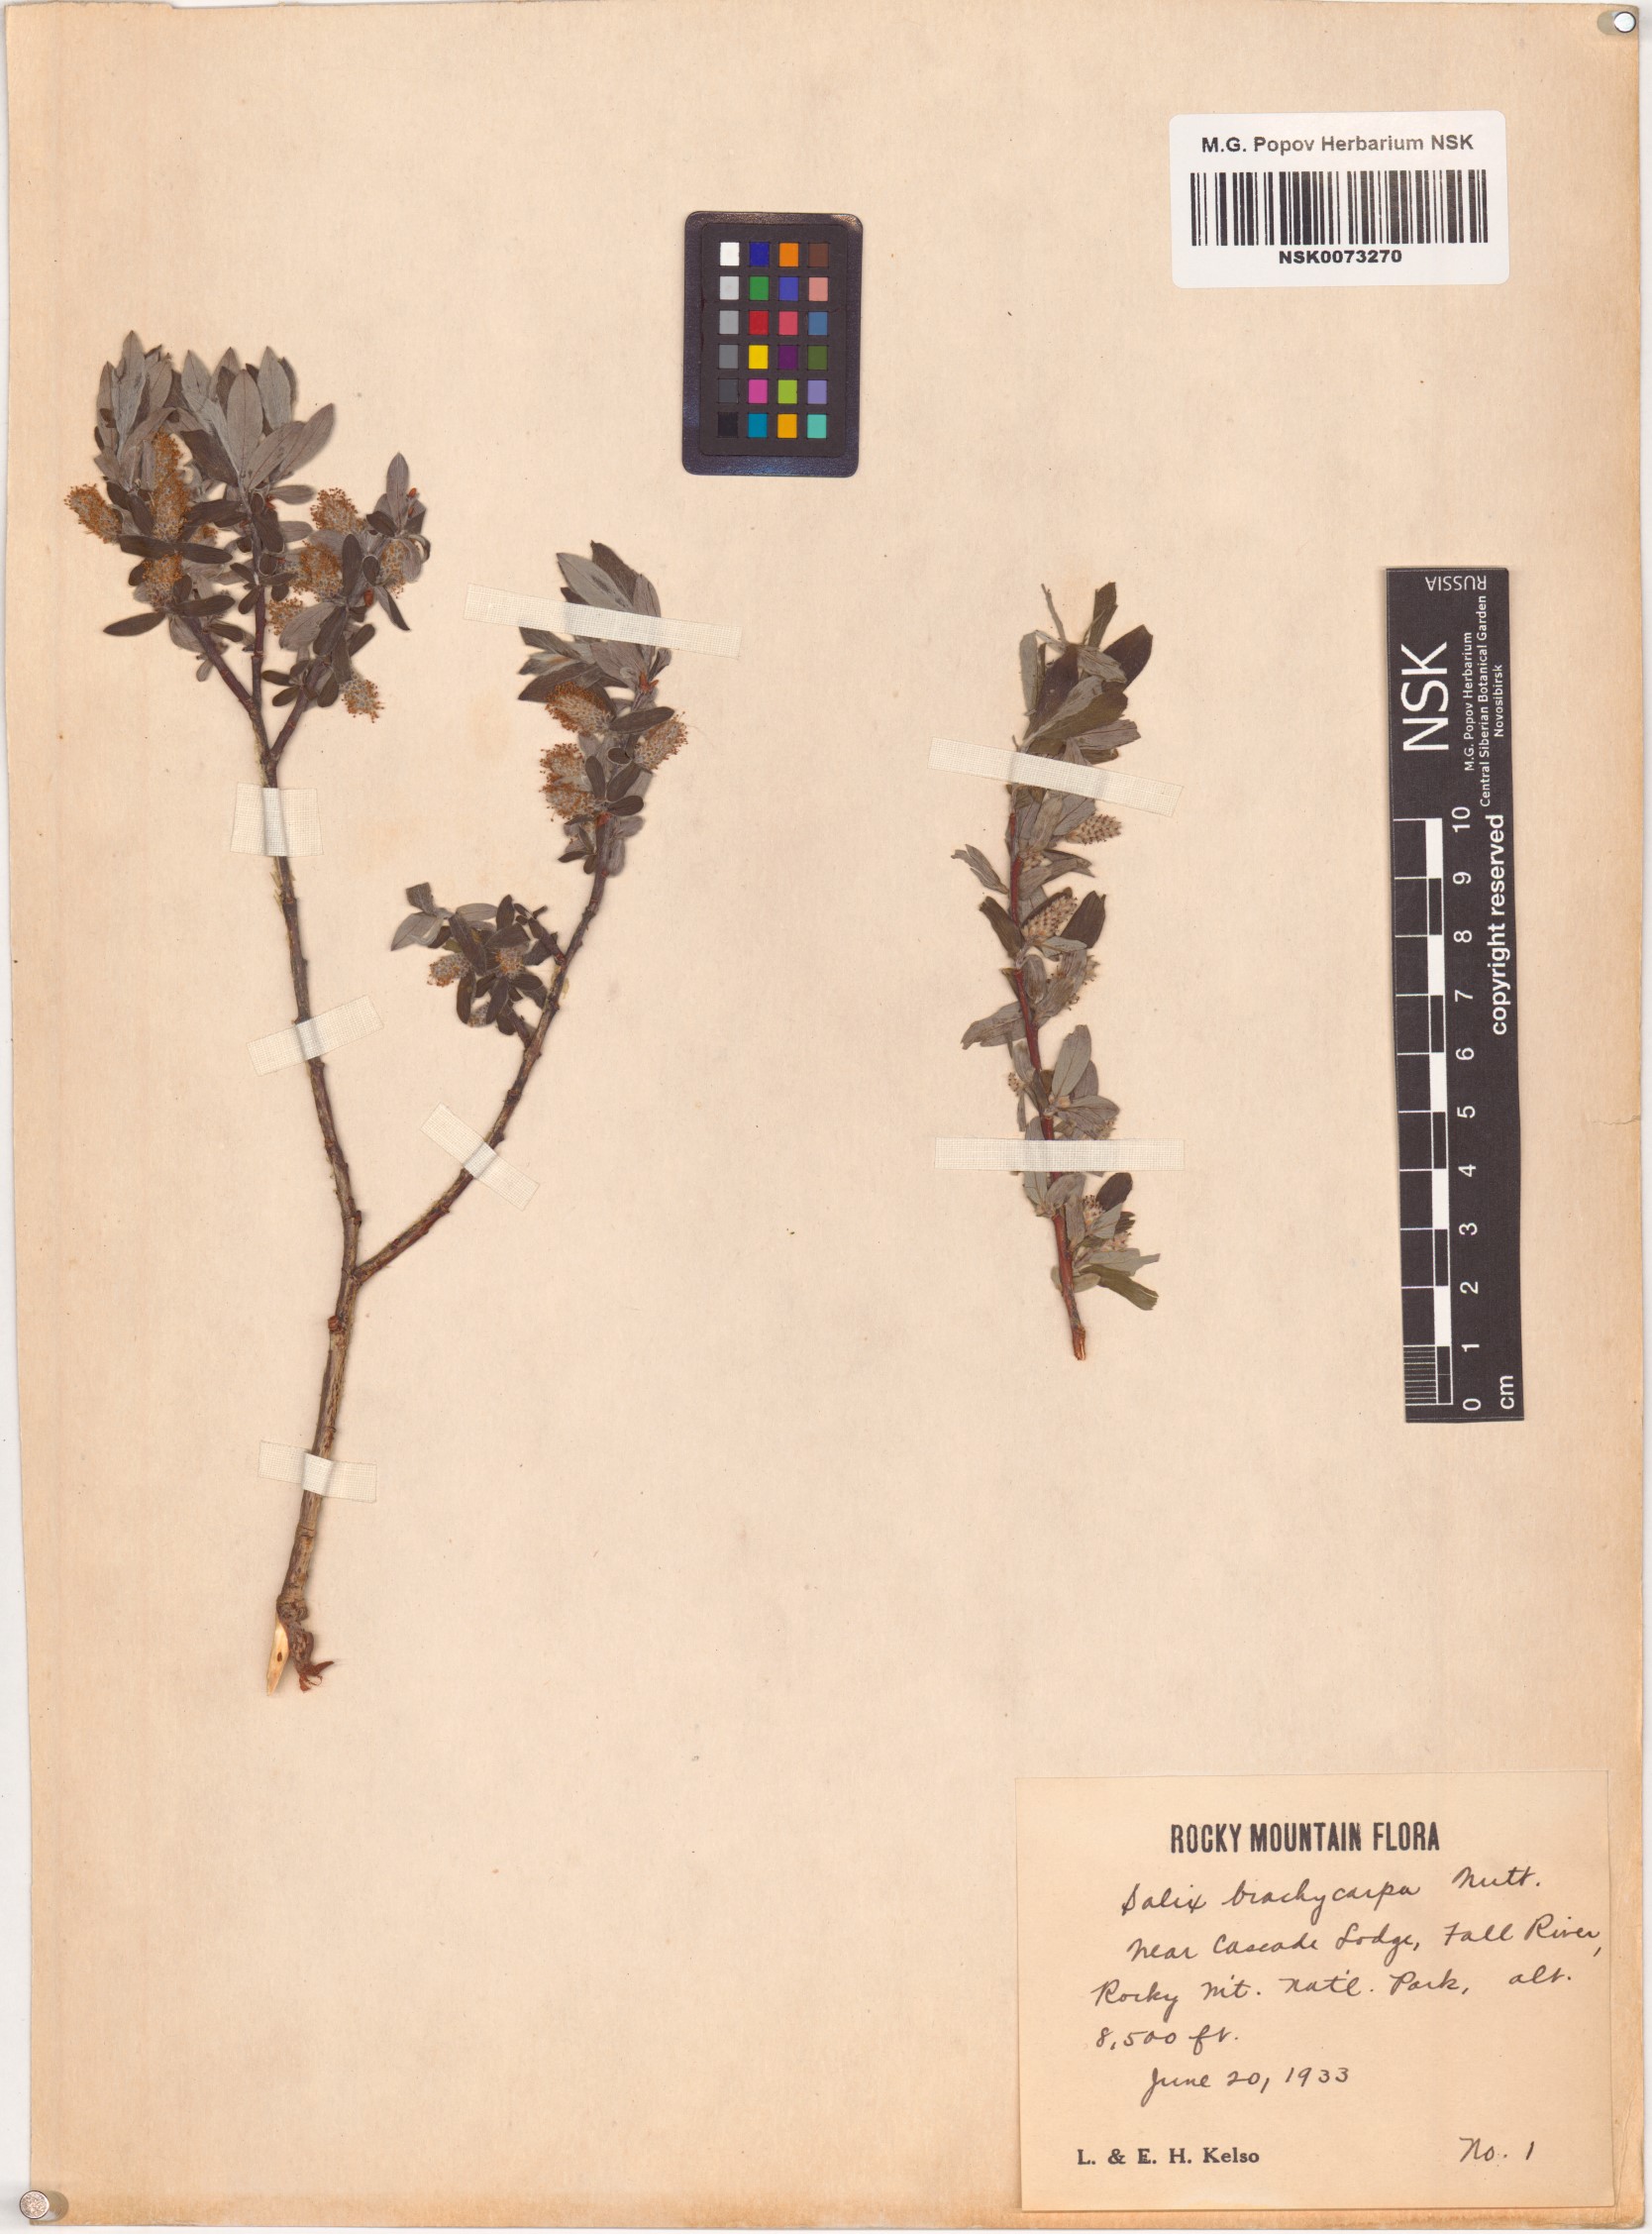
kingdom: Plantae
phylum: Tracheophyta
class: Magnoliopsida
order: Malpighiales
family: Salicaceae
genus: Salix
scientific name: Salix brachycarpa
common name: Barren-ground willow
